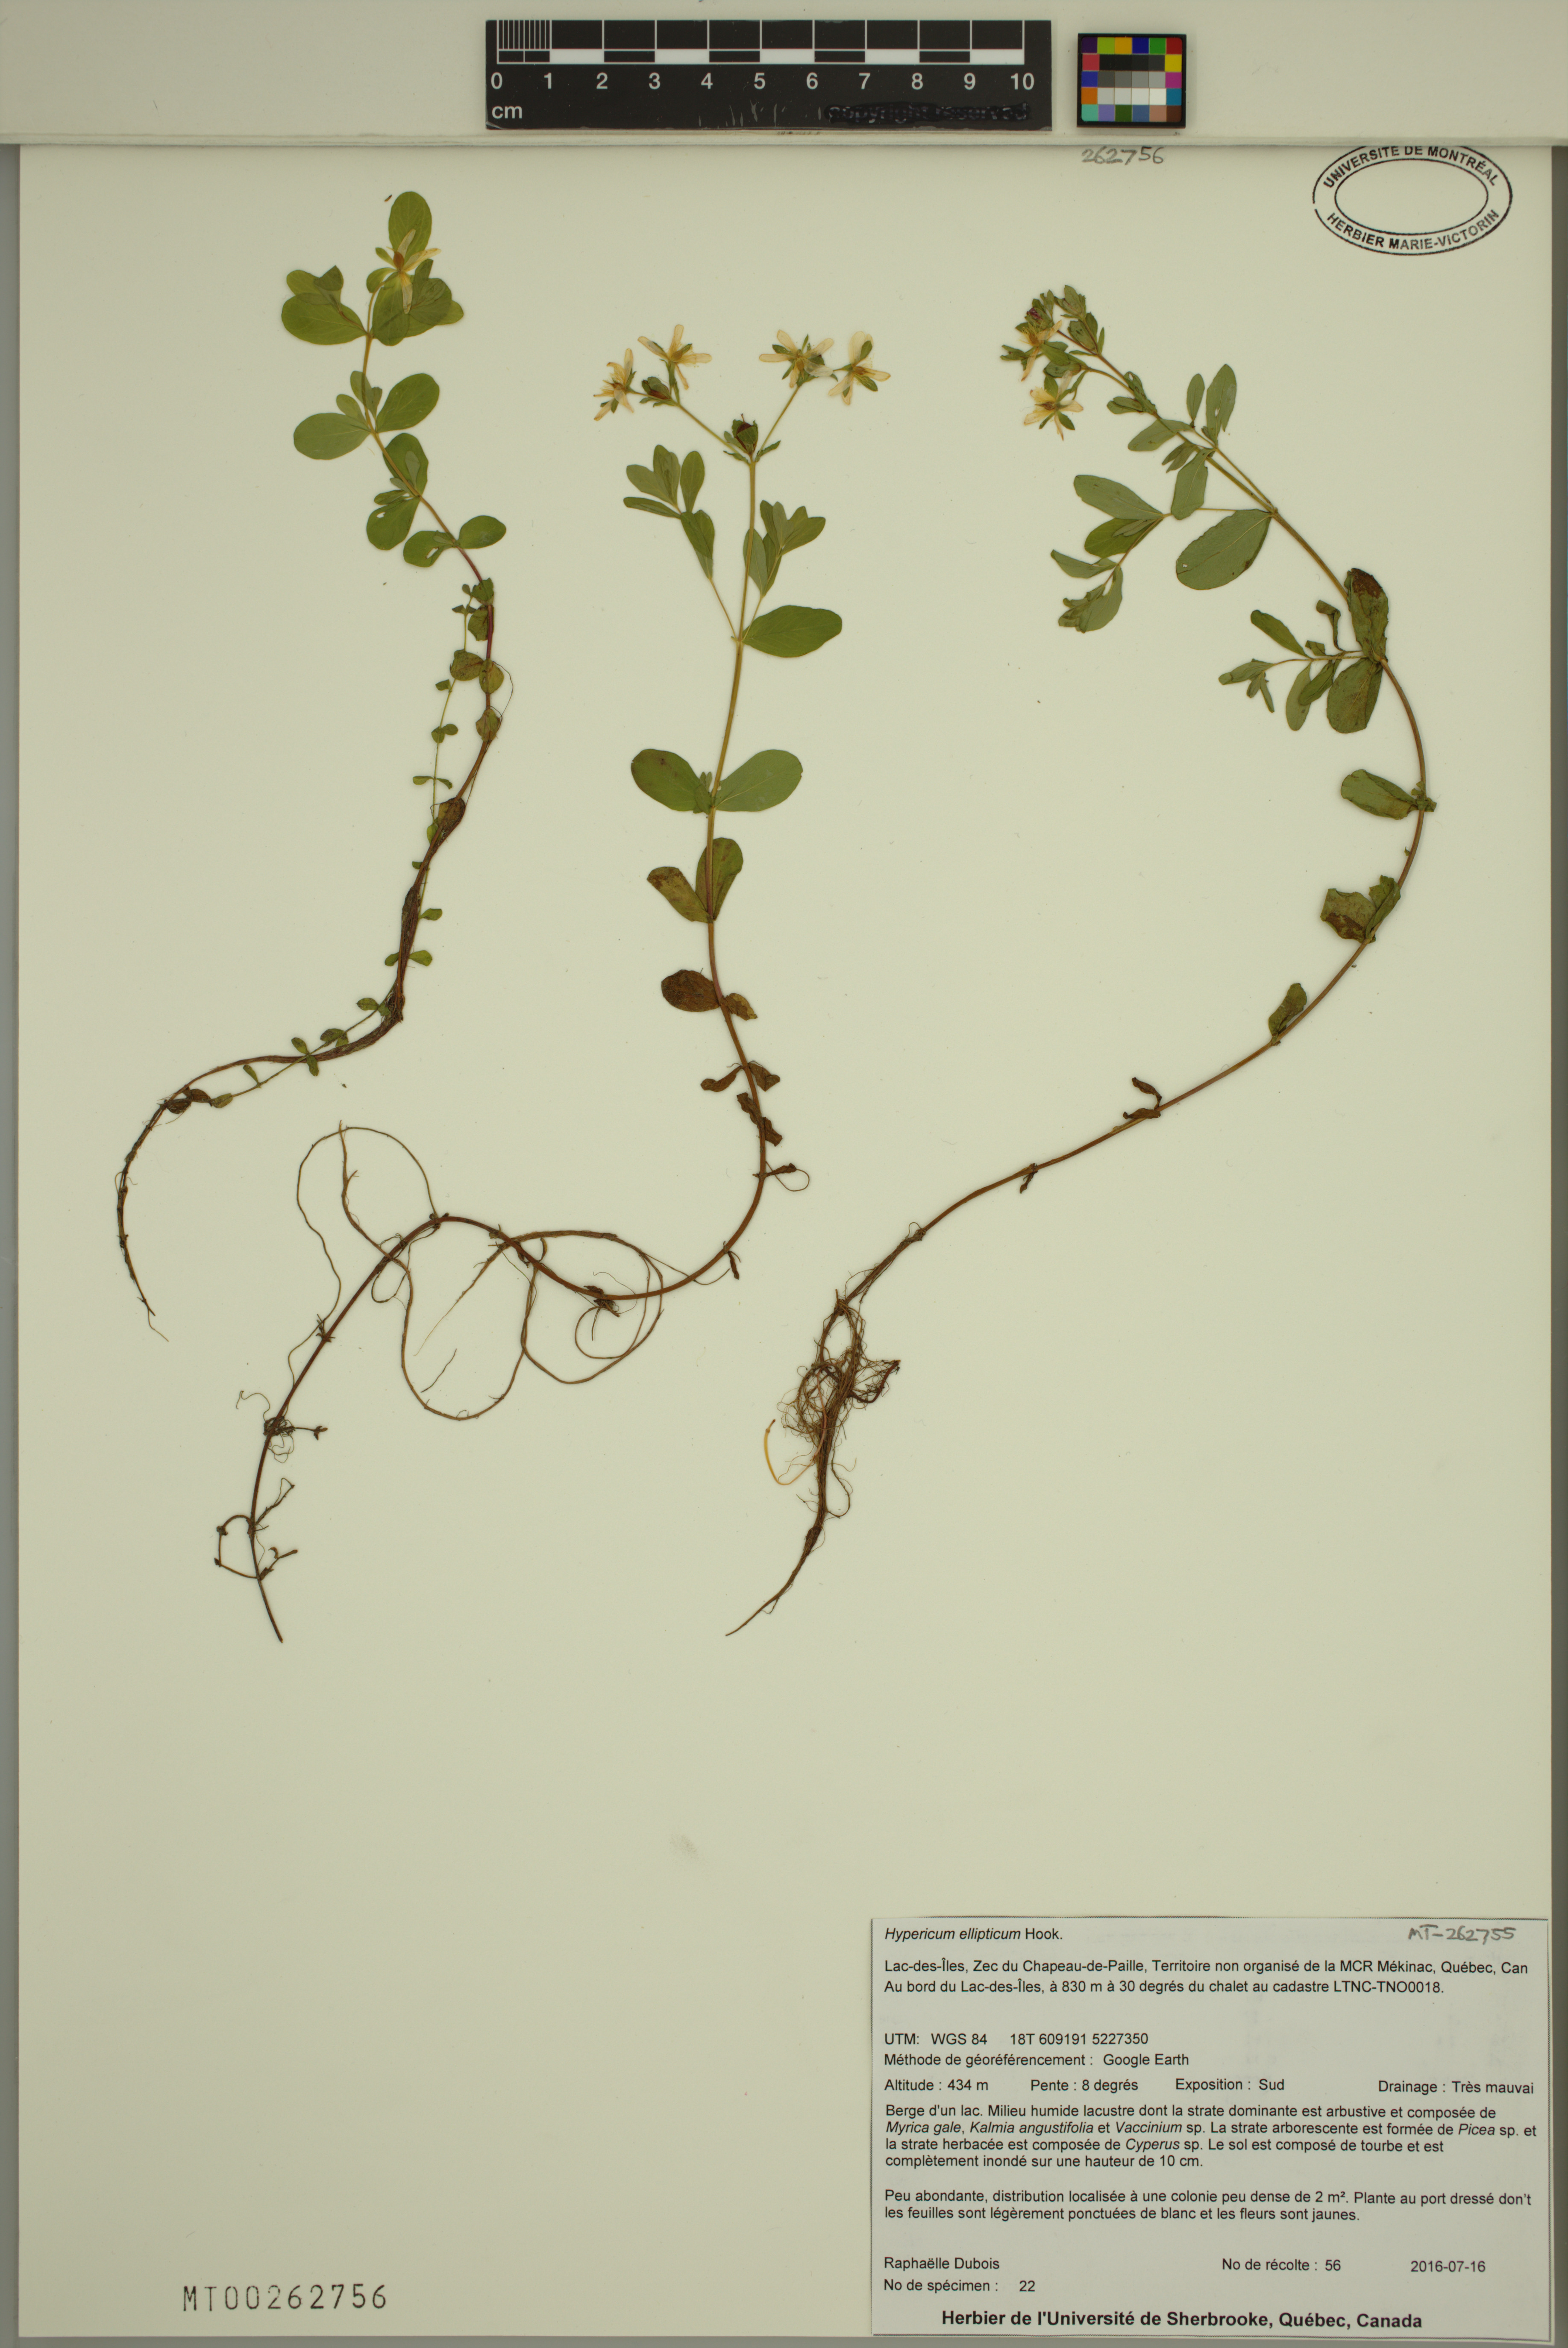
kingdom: Plantae
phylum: Tracheophyta
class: Magnoliopsida
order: Malpighiales
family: Hypericaceae
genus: Hypericum
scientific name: Hypericum ellipticum
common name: Elliptic st. john's-wort
